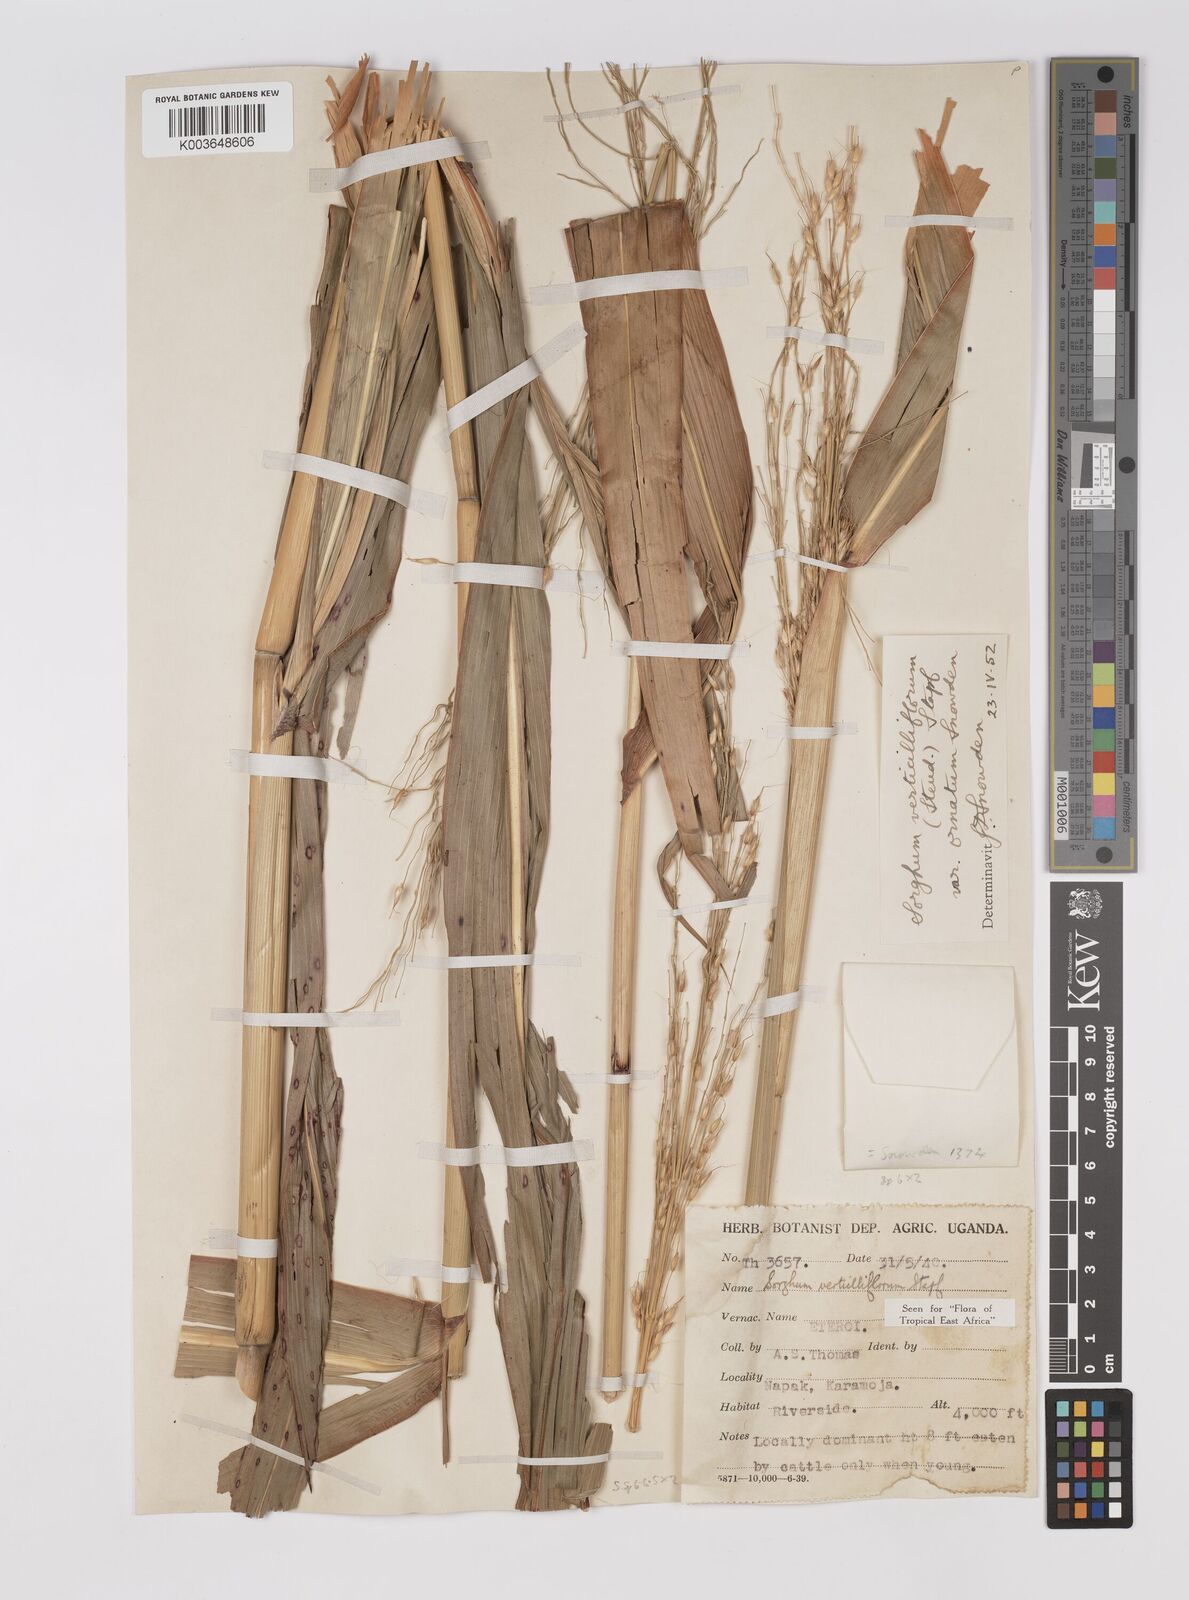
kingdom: Plantae
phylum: Tracheophyta
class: Liliopsida
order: Poales
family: Poaceae
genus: Sorghum
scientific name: Sorghum arundinaceum
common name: Sorghum
